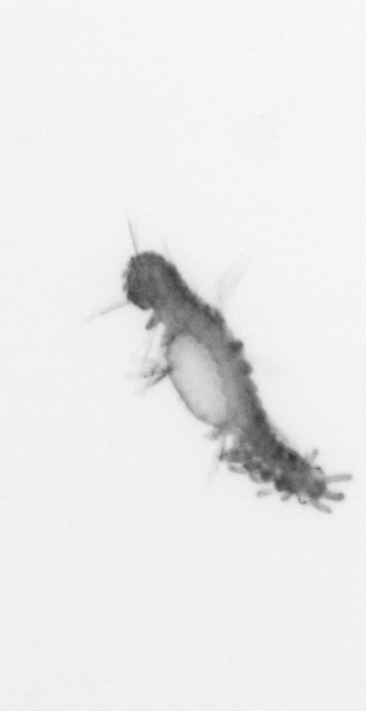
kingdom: Animalia
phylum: Annelida
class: Polychaeta
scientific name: Polychaeta
